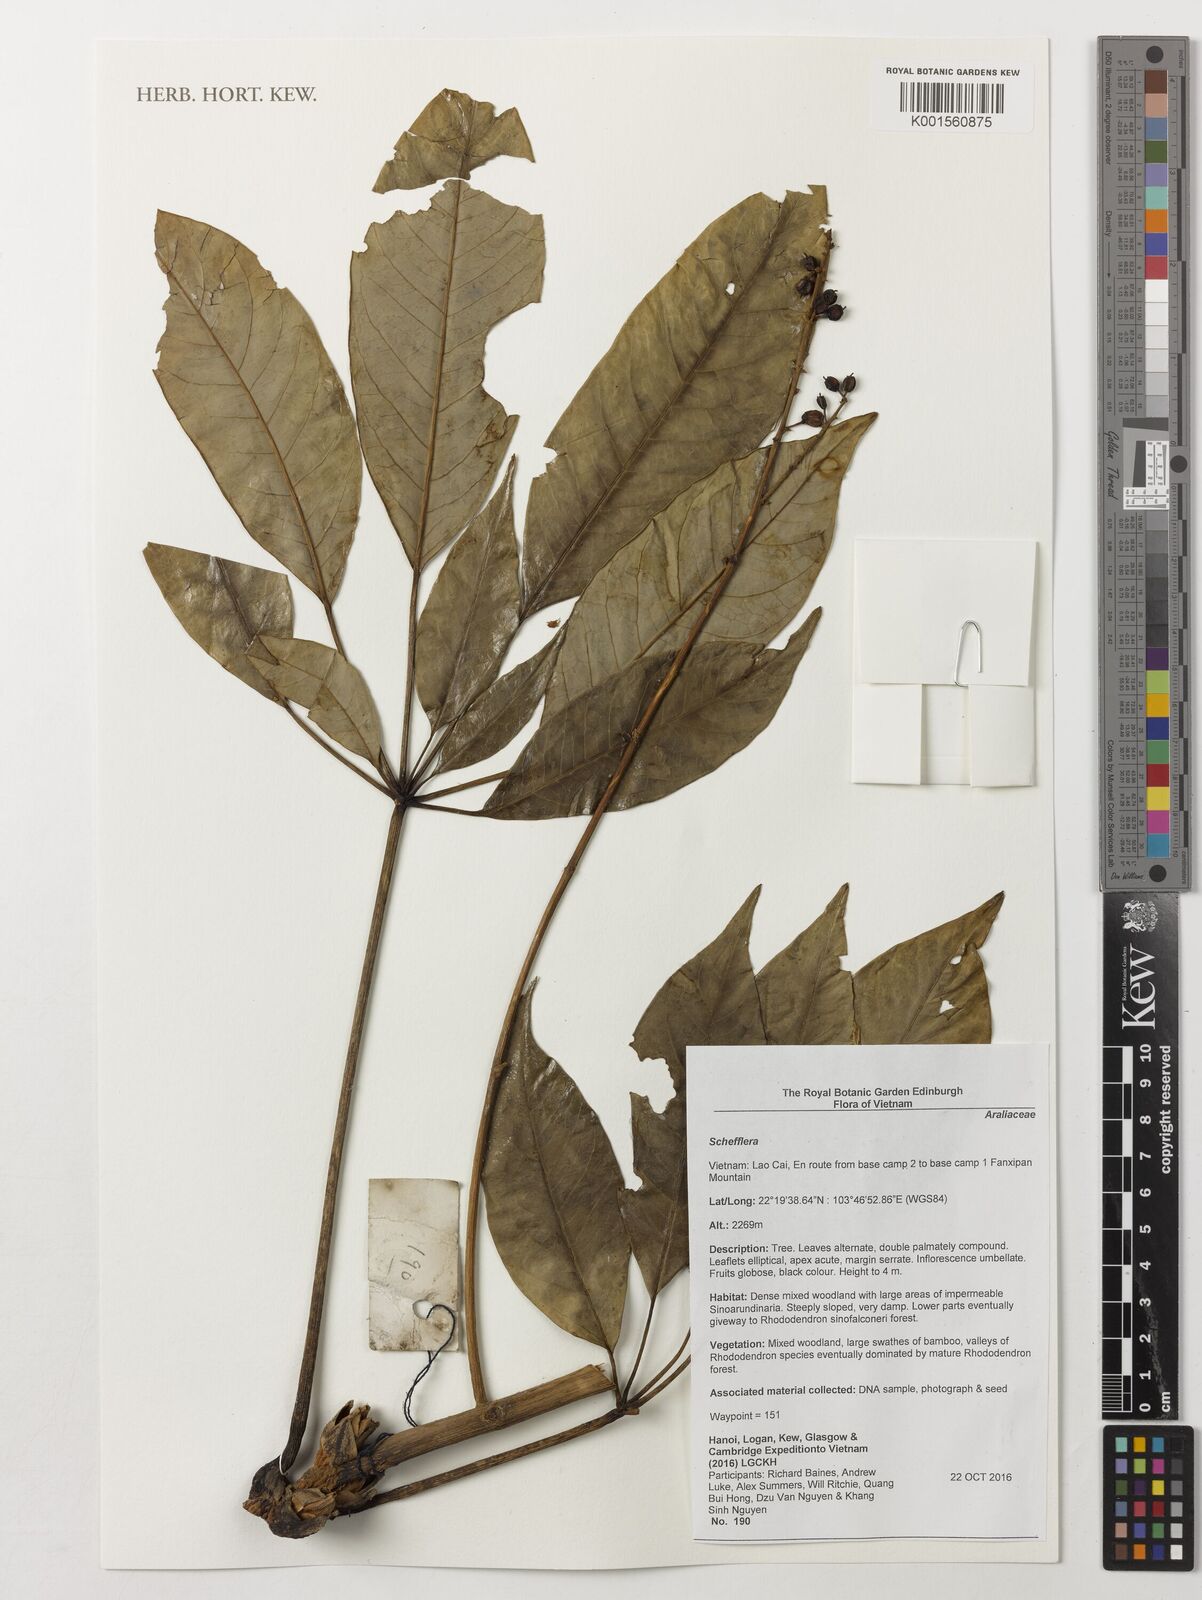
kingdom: Plantae
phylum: Tracheophyta
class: Magnoliopsida
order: Apiales
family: Araliaceae
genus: Schefflera
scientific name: Schefflera
